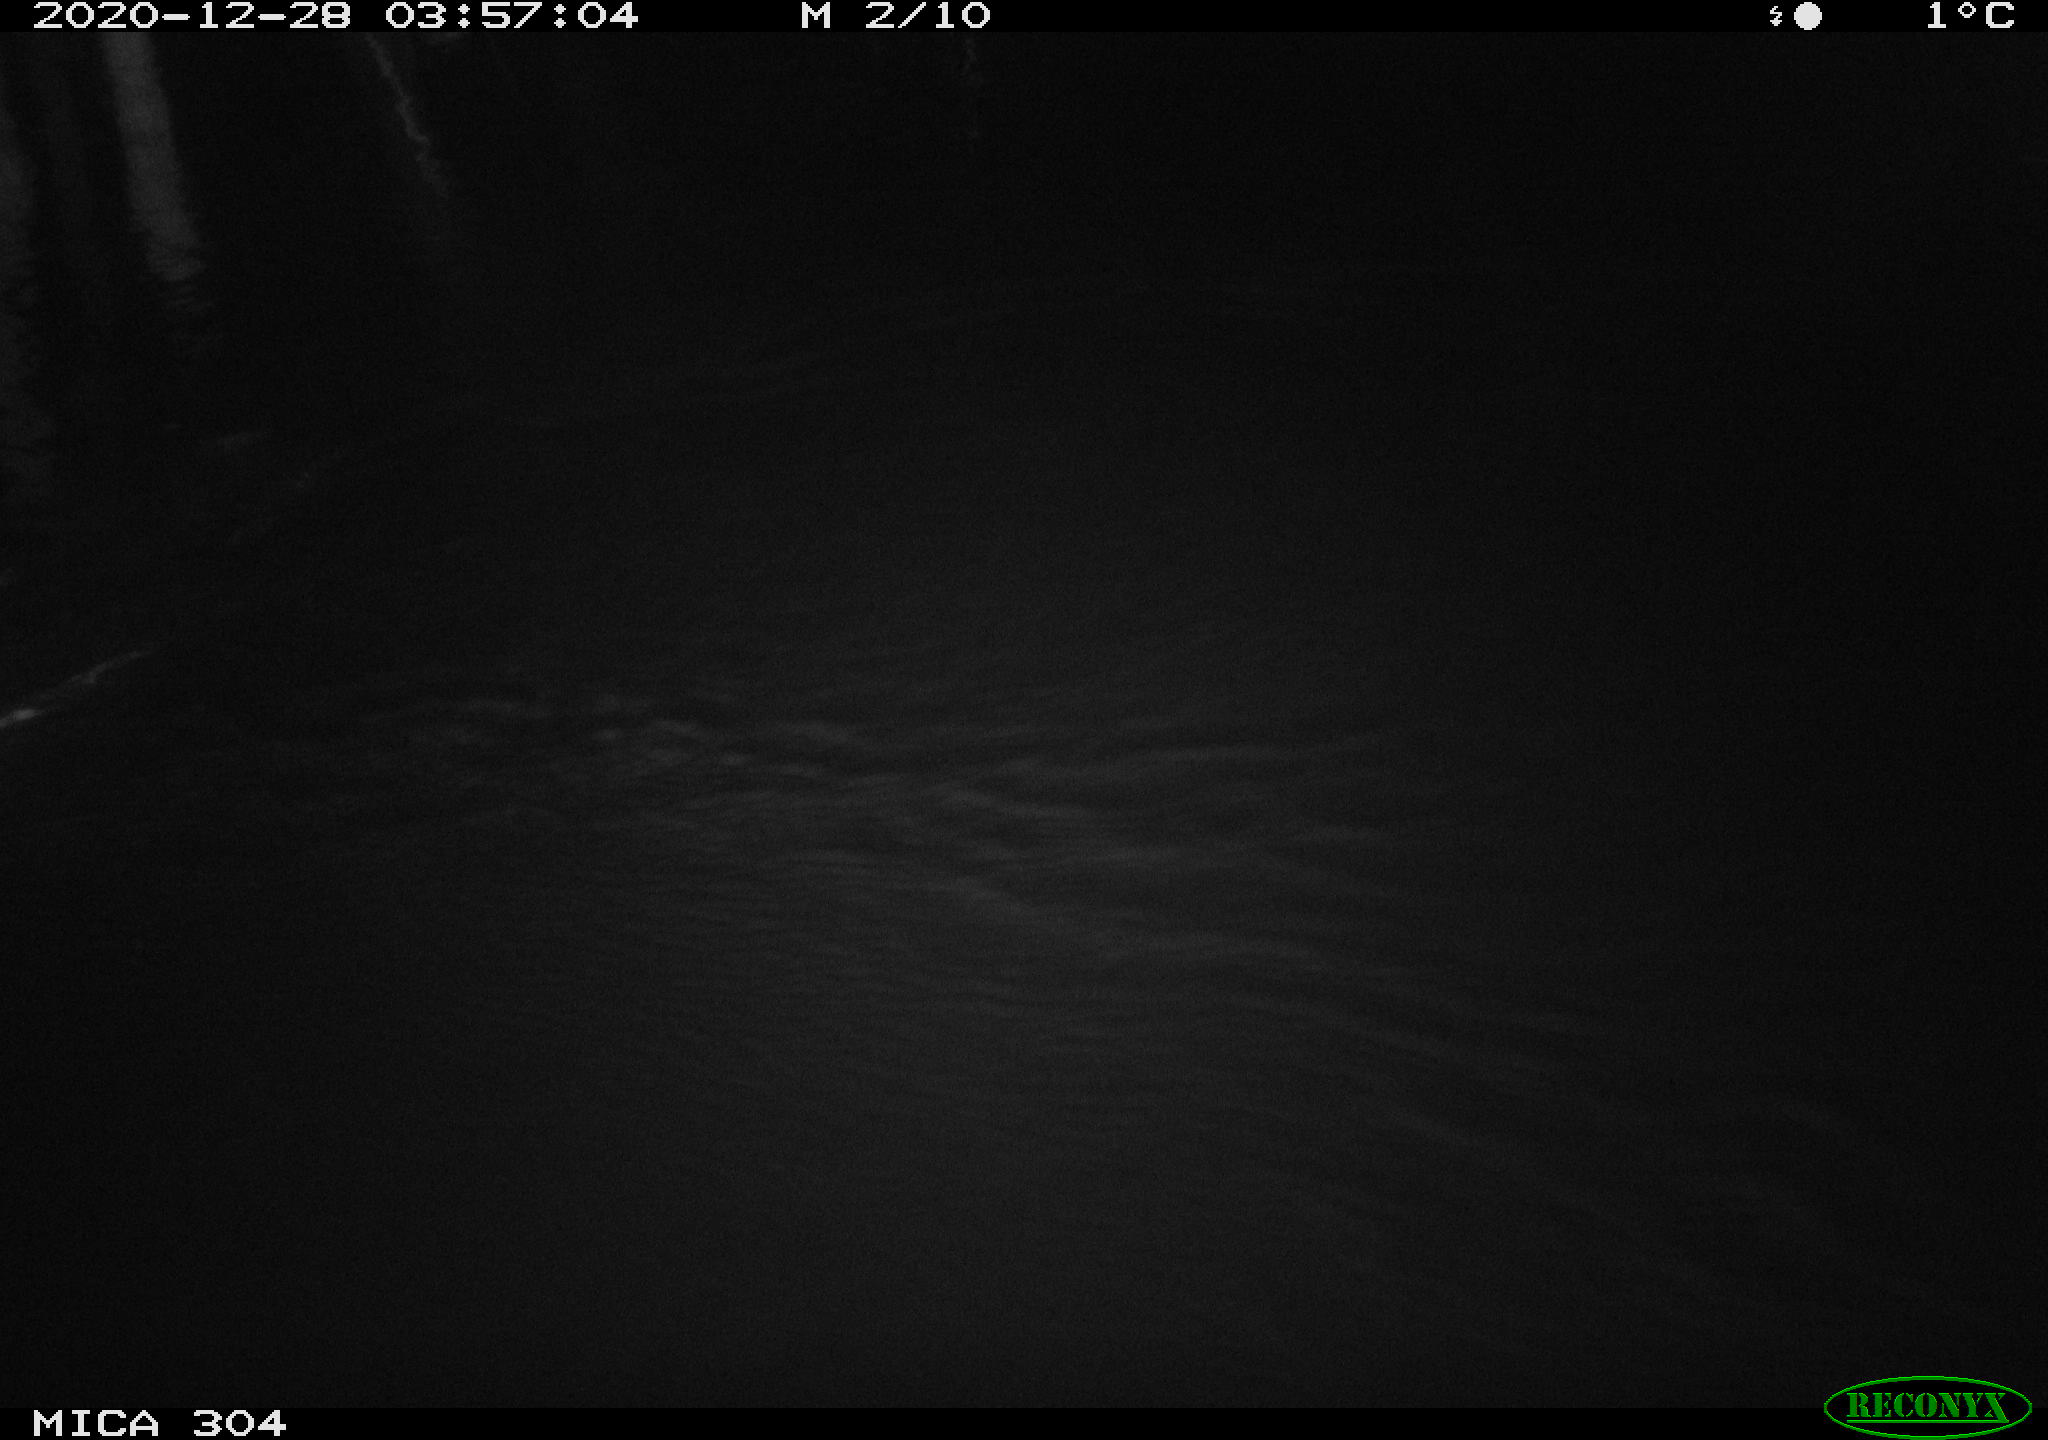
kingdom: Animalia
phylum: Chordata
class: Mammalia
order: Rodentia
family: Muridae
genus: Rattus
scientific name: Rattus norvegicus
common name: Brown rat
